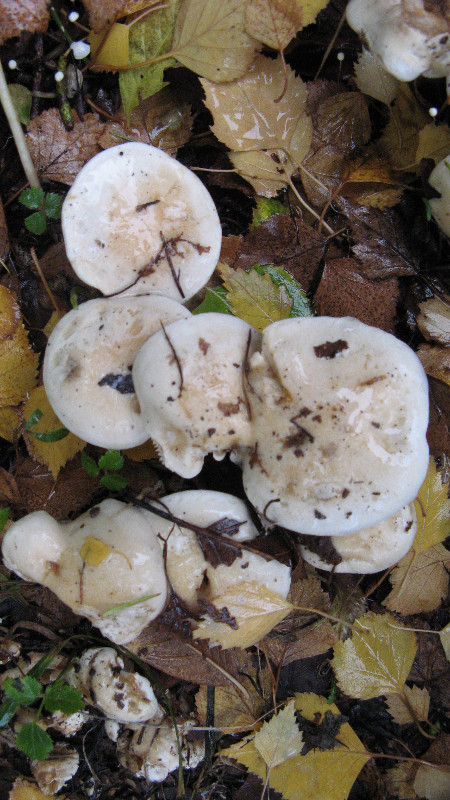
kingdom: Fungi
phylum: Basidiomycota
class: Agaricomycetes
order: Agaricales
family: Hymenogastraceae
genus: Hebeloma
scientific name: Hebeloma
